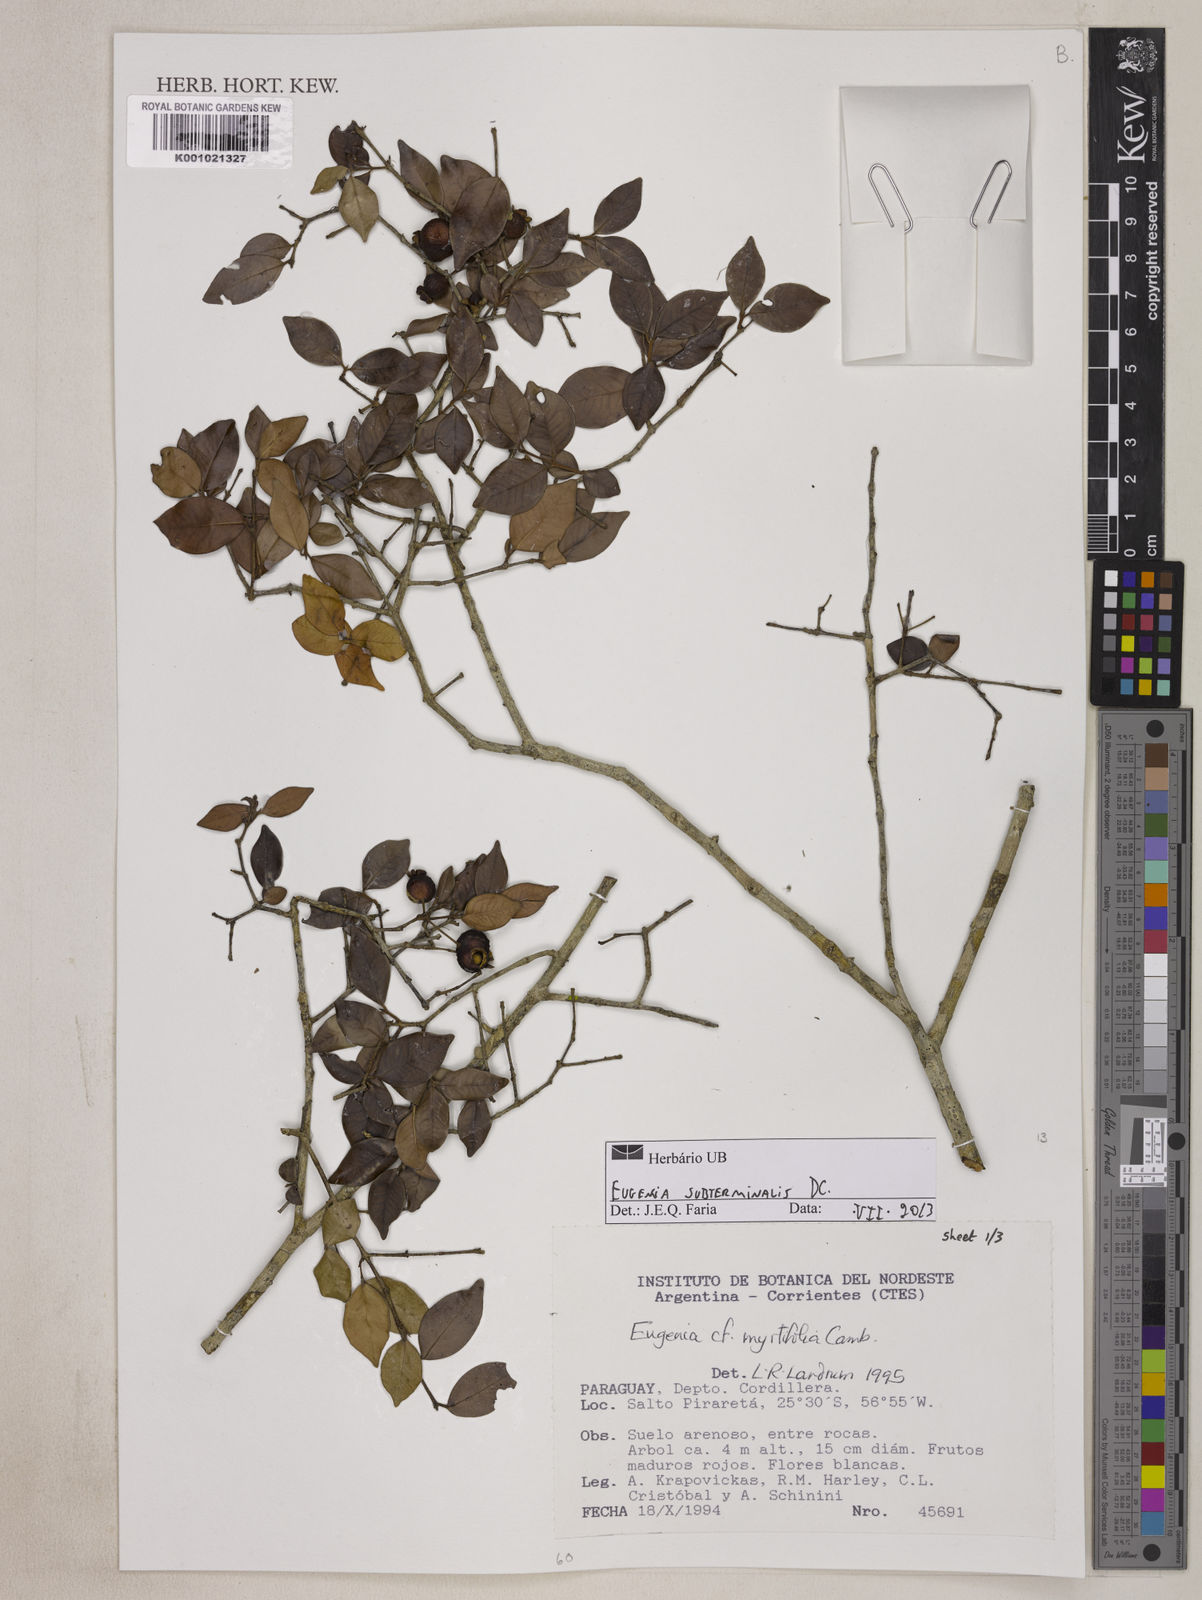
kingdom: Plantae
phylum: Tracheophyta
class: Magnoliopsida
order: Myrtales
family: Myrtaceae
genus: Eugenia
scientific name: Eugenia subterminalis
